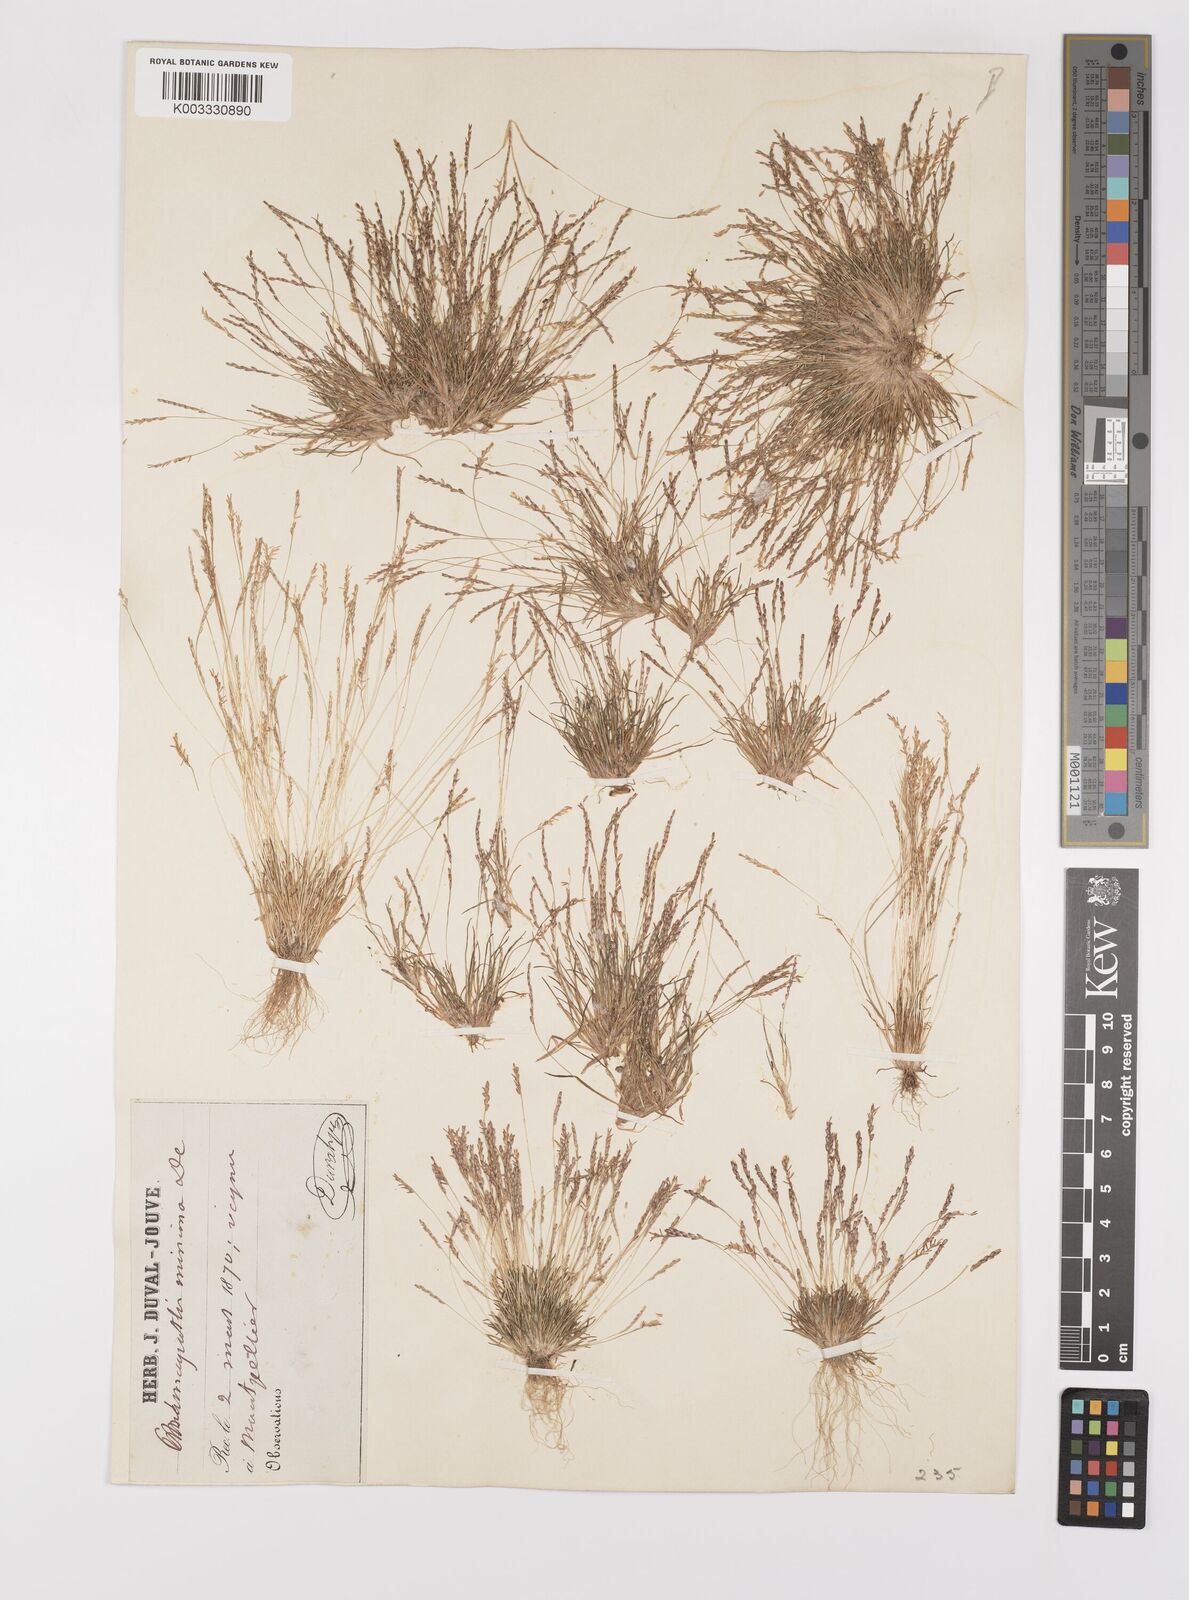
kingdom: Plantae
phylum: Tracheophyta
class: Liliopsida
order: Poales
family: Poaceae
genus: Mibora
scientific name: Mibora minima
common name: Early sand-grass
